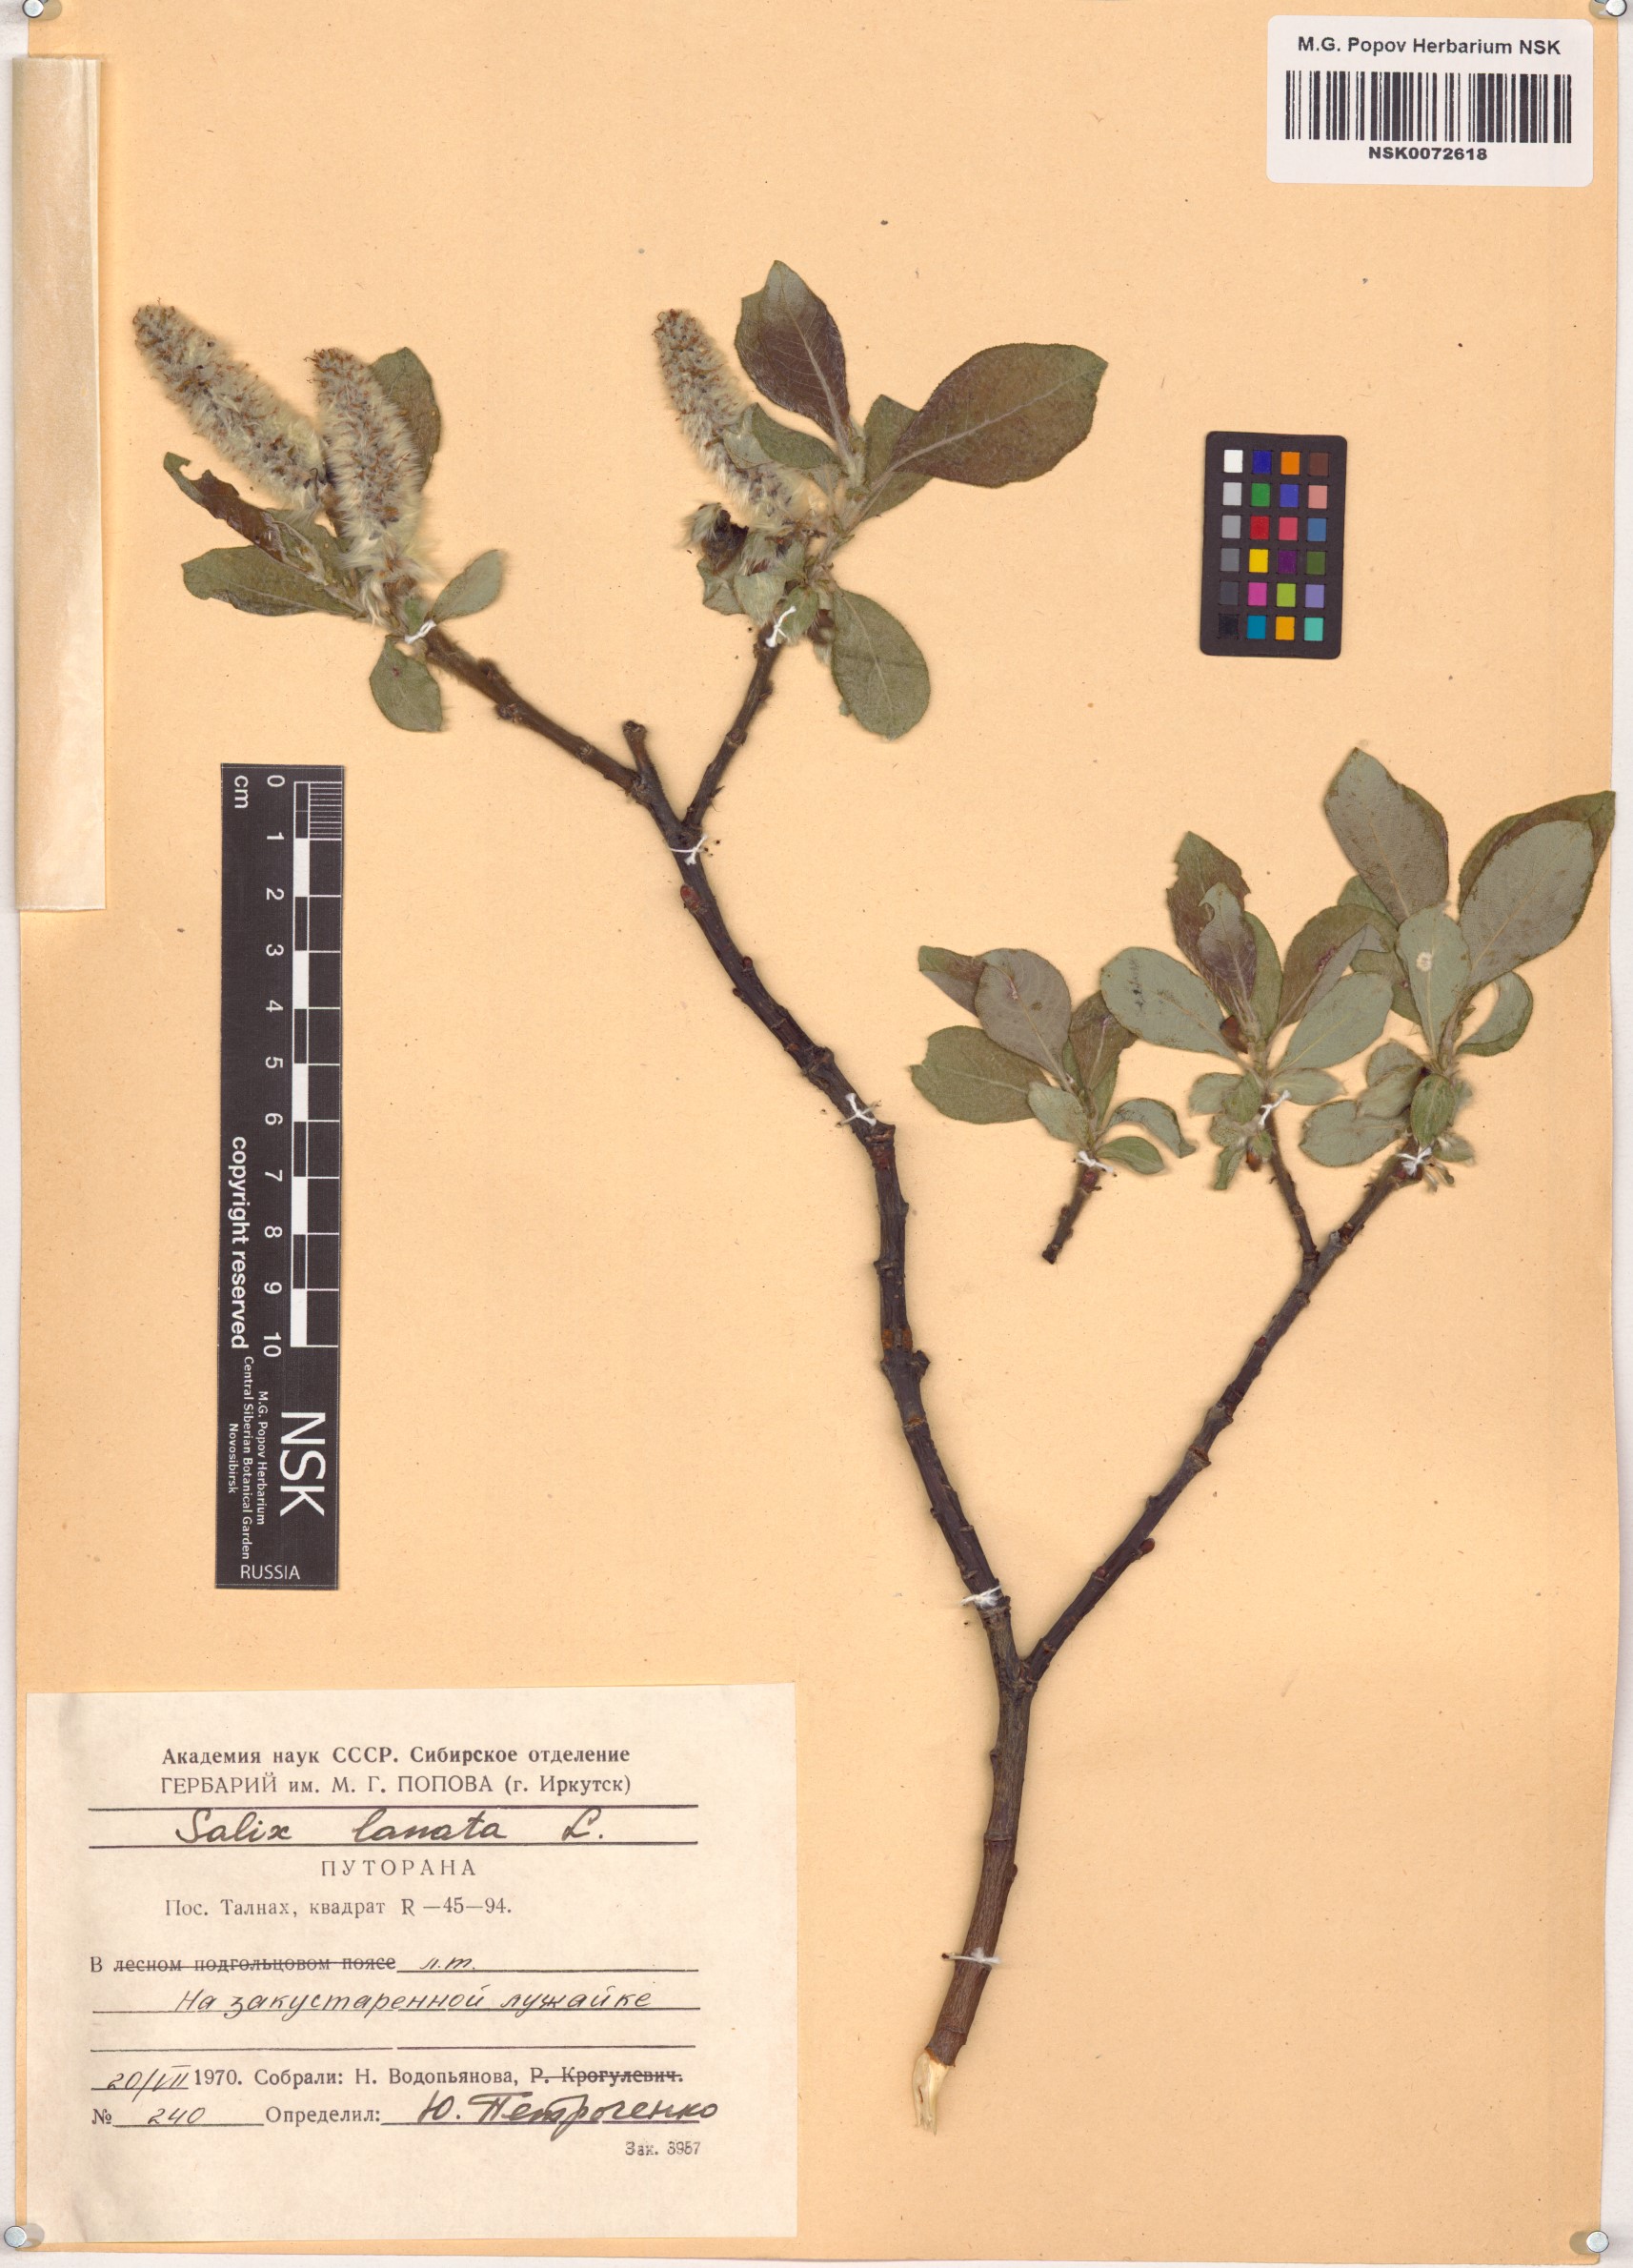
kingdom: Plantae
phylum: Tracheophyta
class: Magnoliopsida
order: Malpighiales
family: Salicaceae
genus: Salix
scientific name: Salix lanata
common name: Woolly willow
